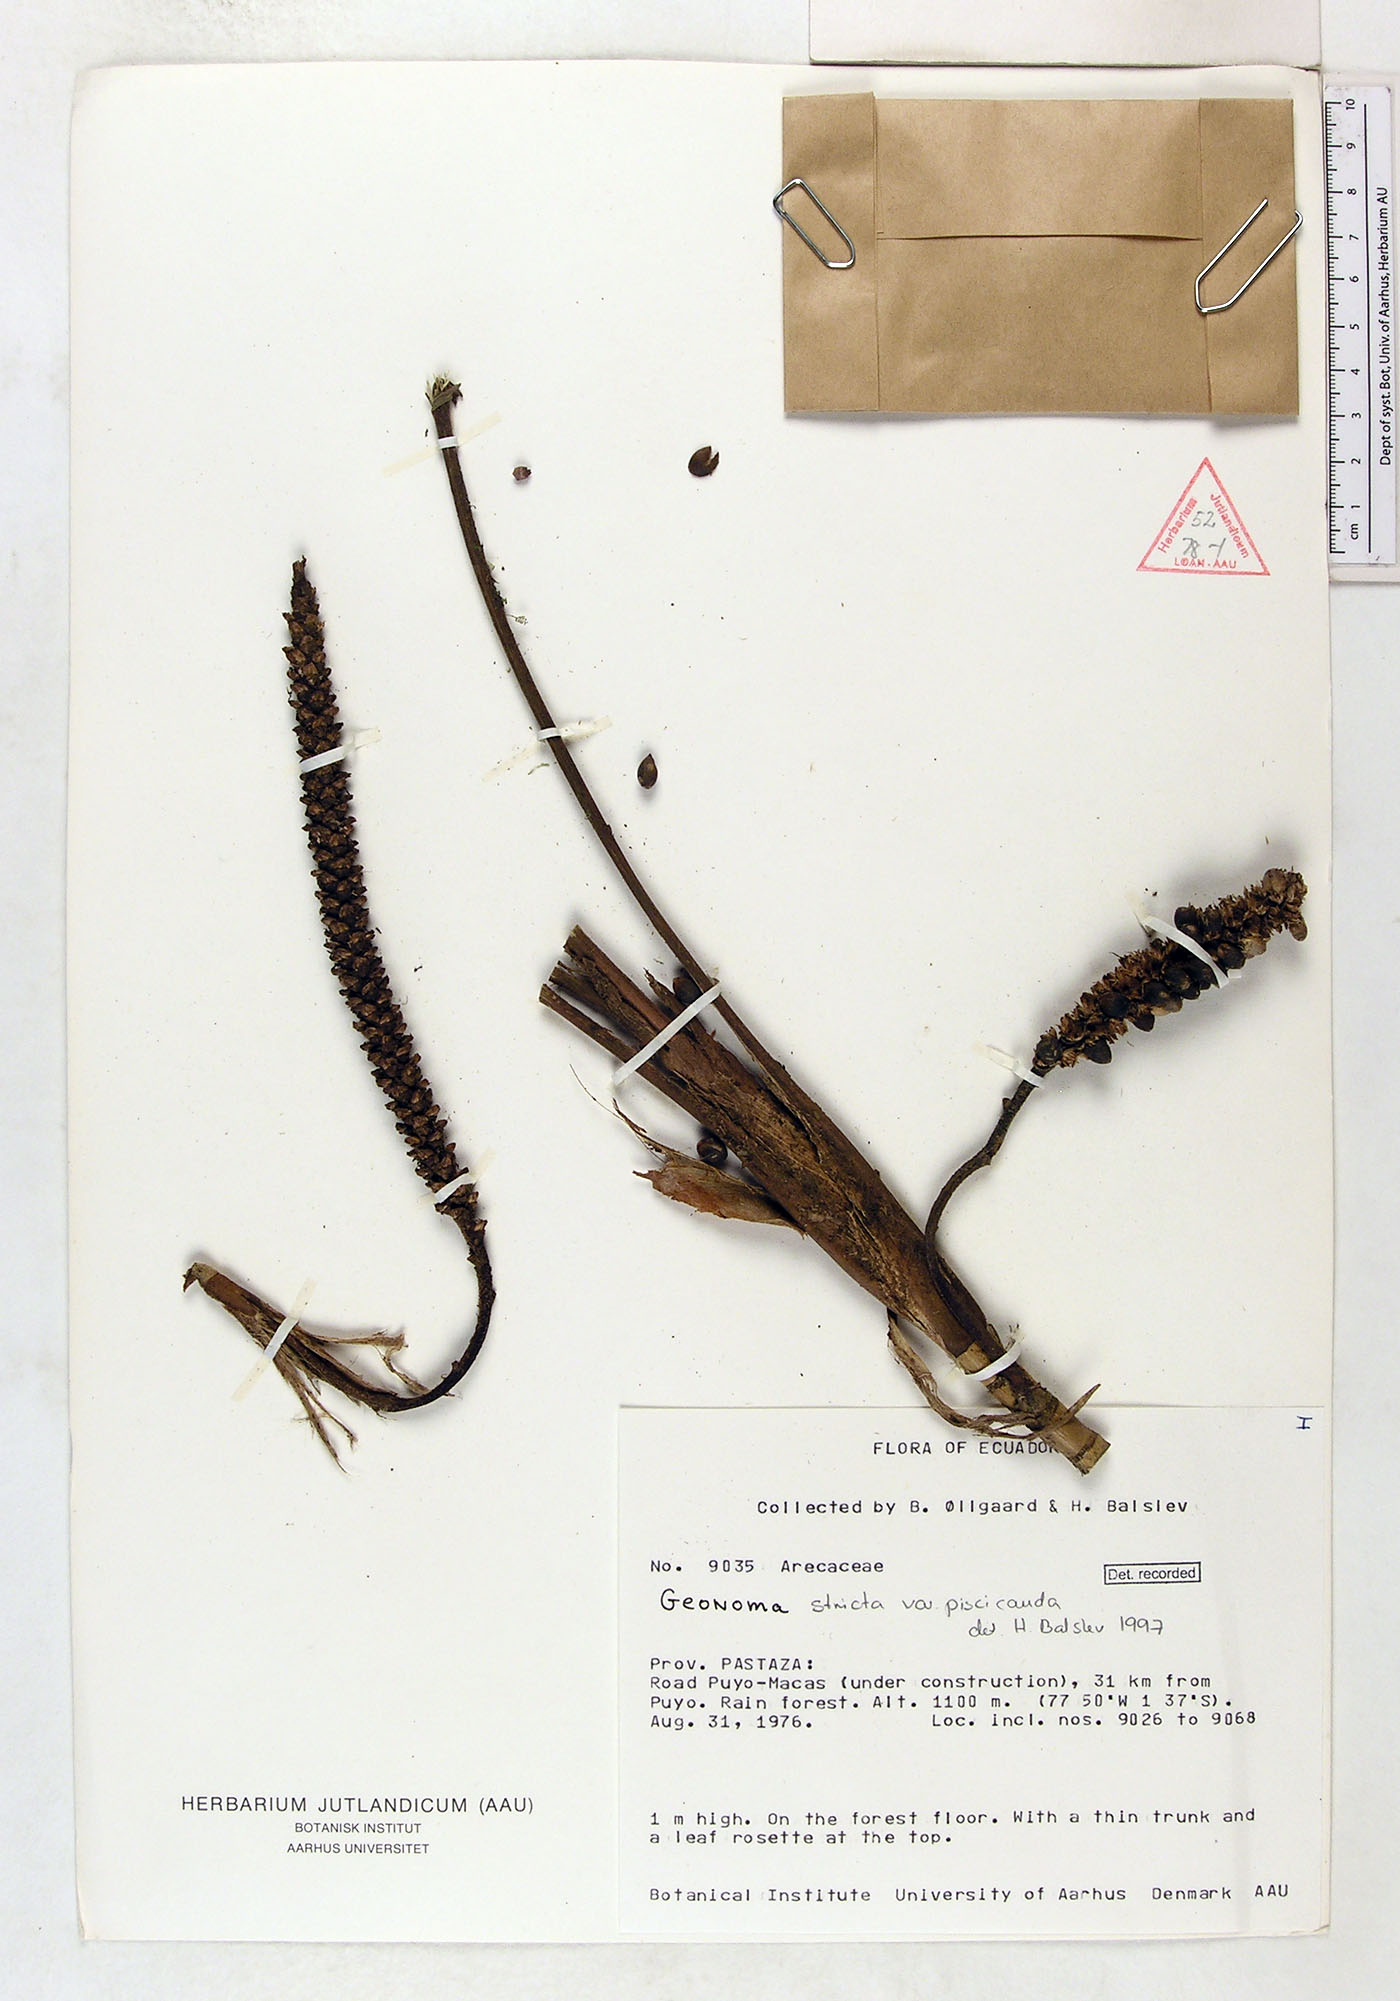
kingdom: Plantae
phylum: Tracheophyta
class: Liliopsida
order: Arecales
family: Arecaceae
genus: Geonoma
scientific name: Geonoma stricta
